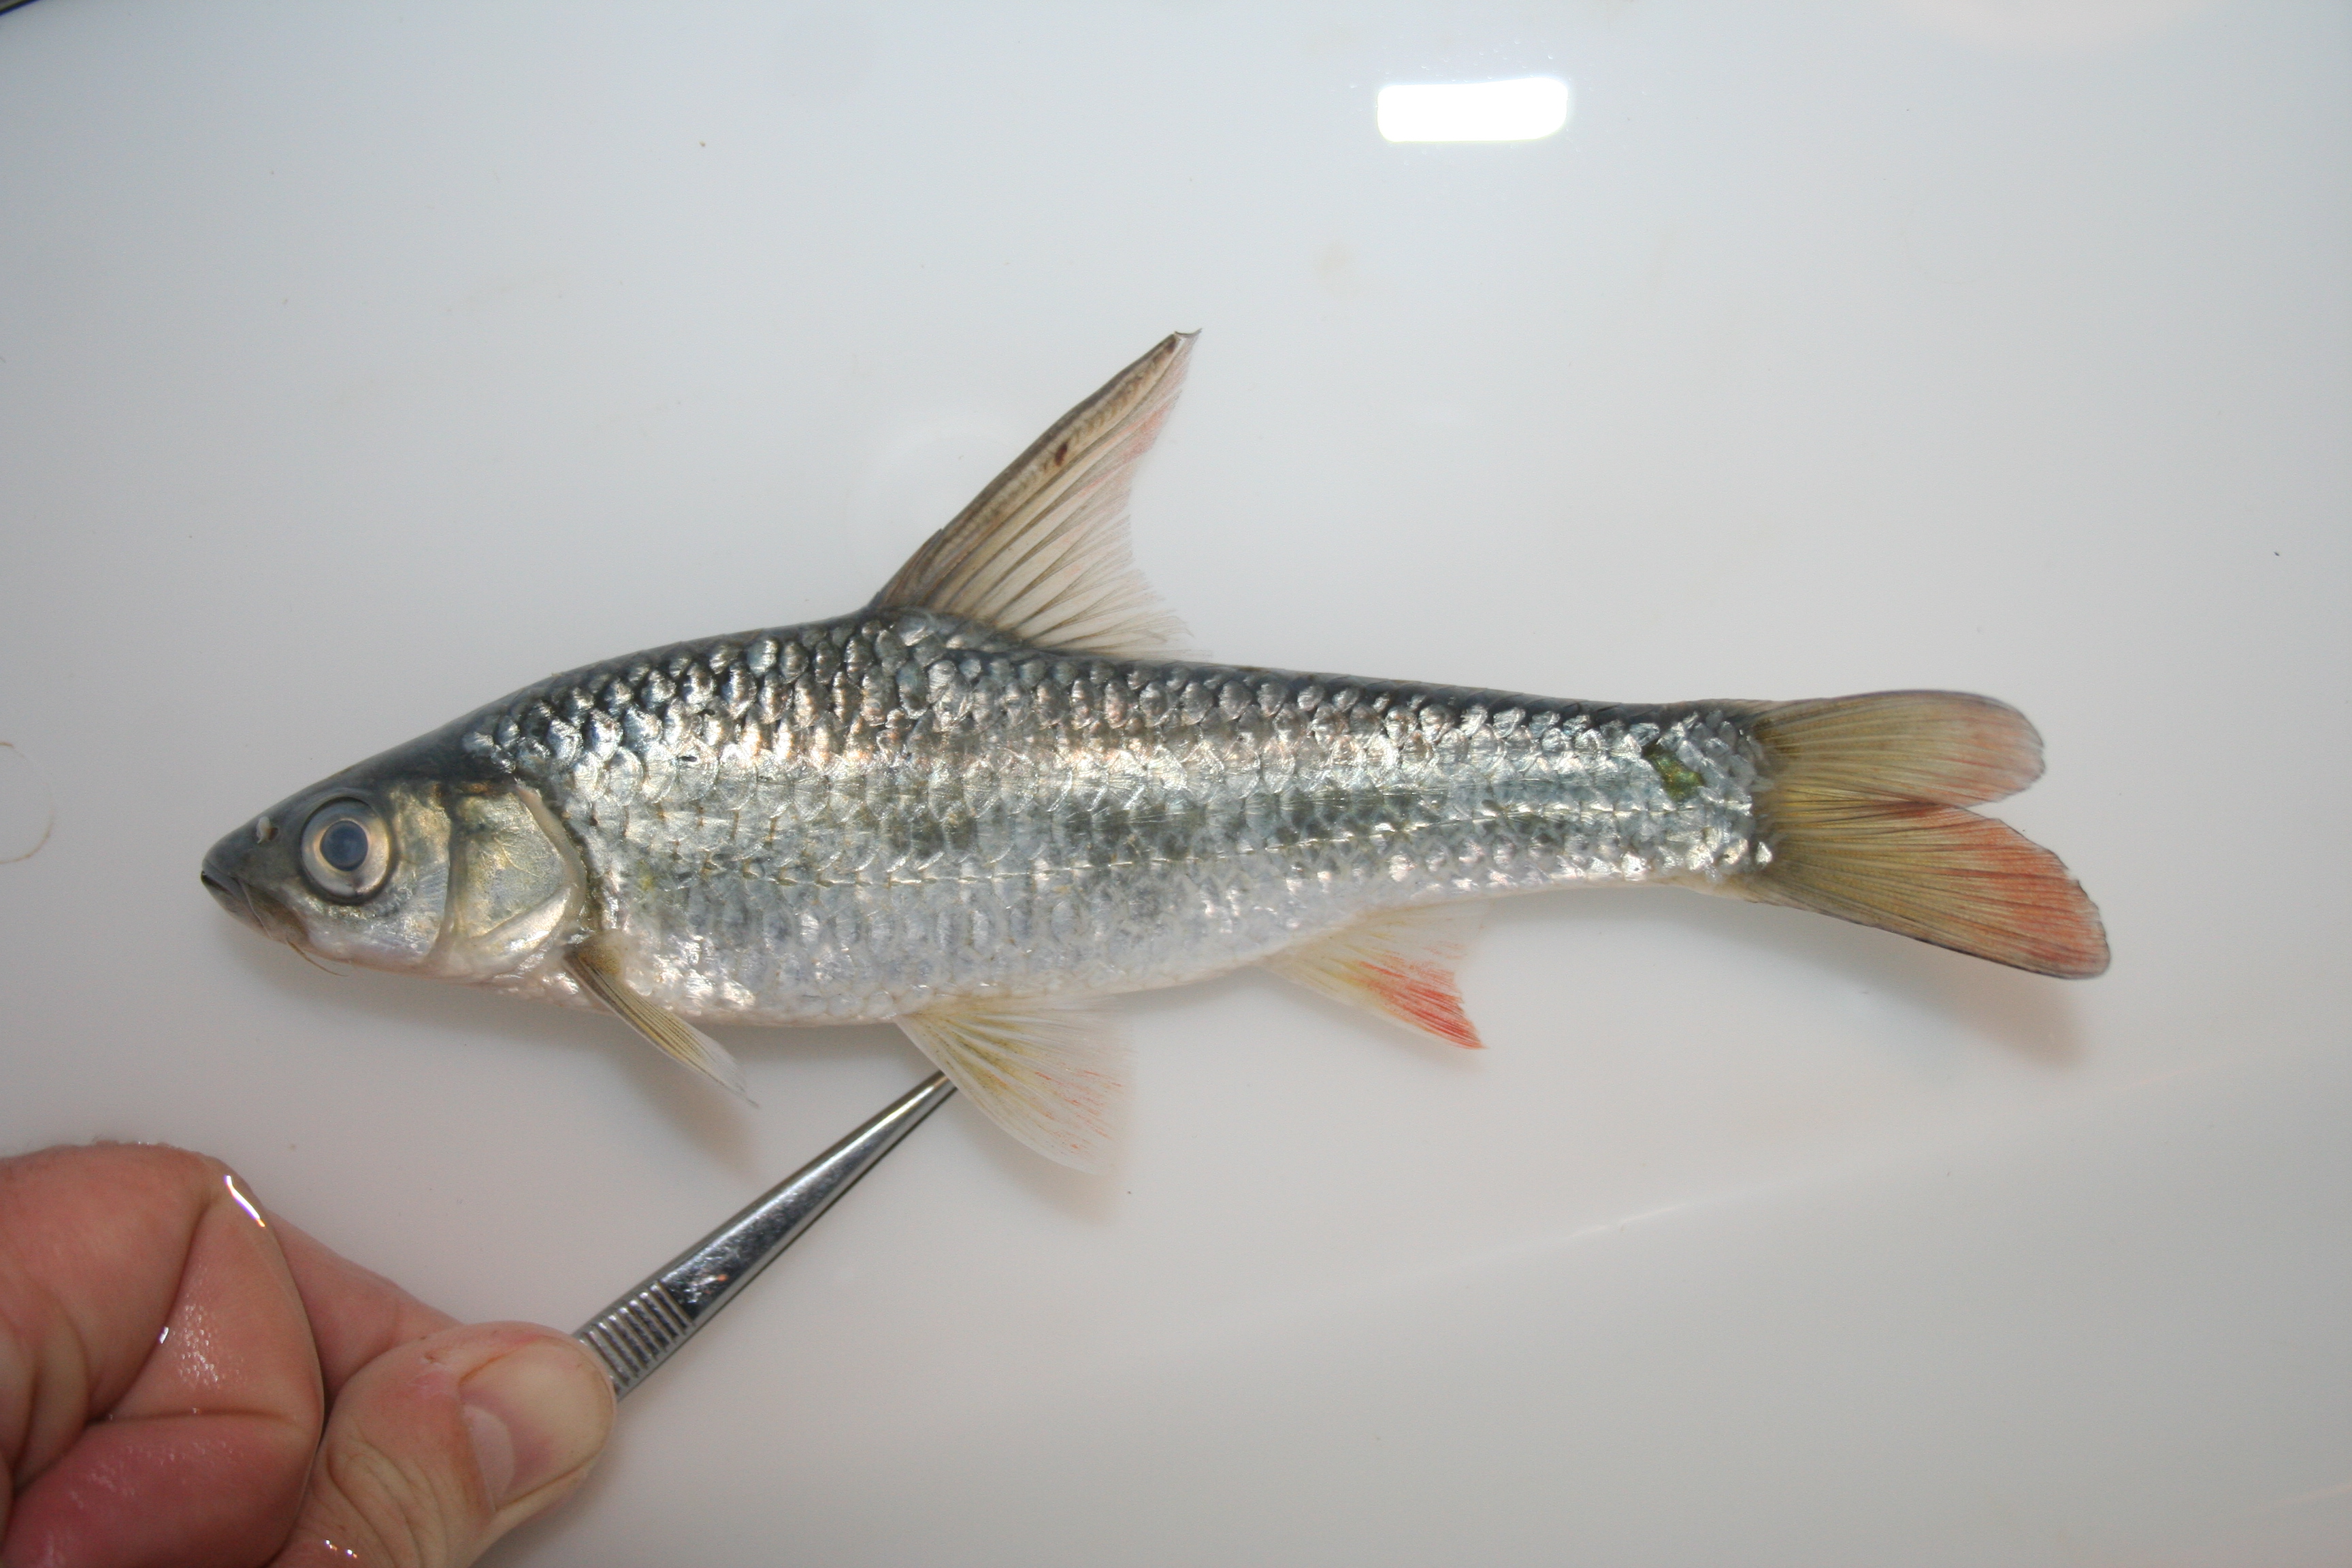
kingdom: Animalia
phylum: Chordata
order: Cypriniformes
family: Cyprinidae
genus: Barbus
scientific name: Barbus
